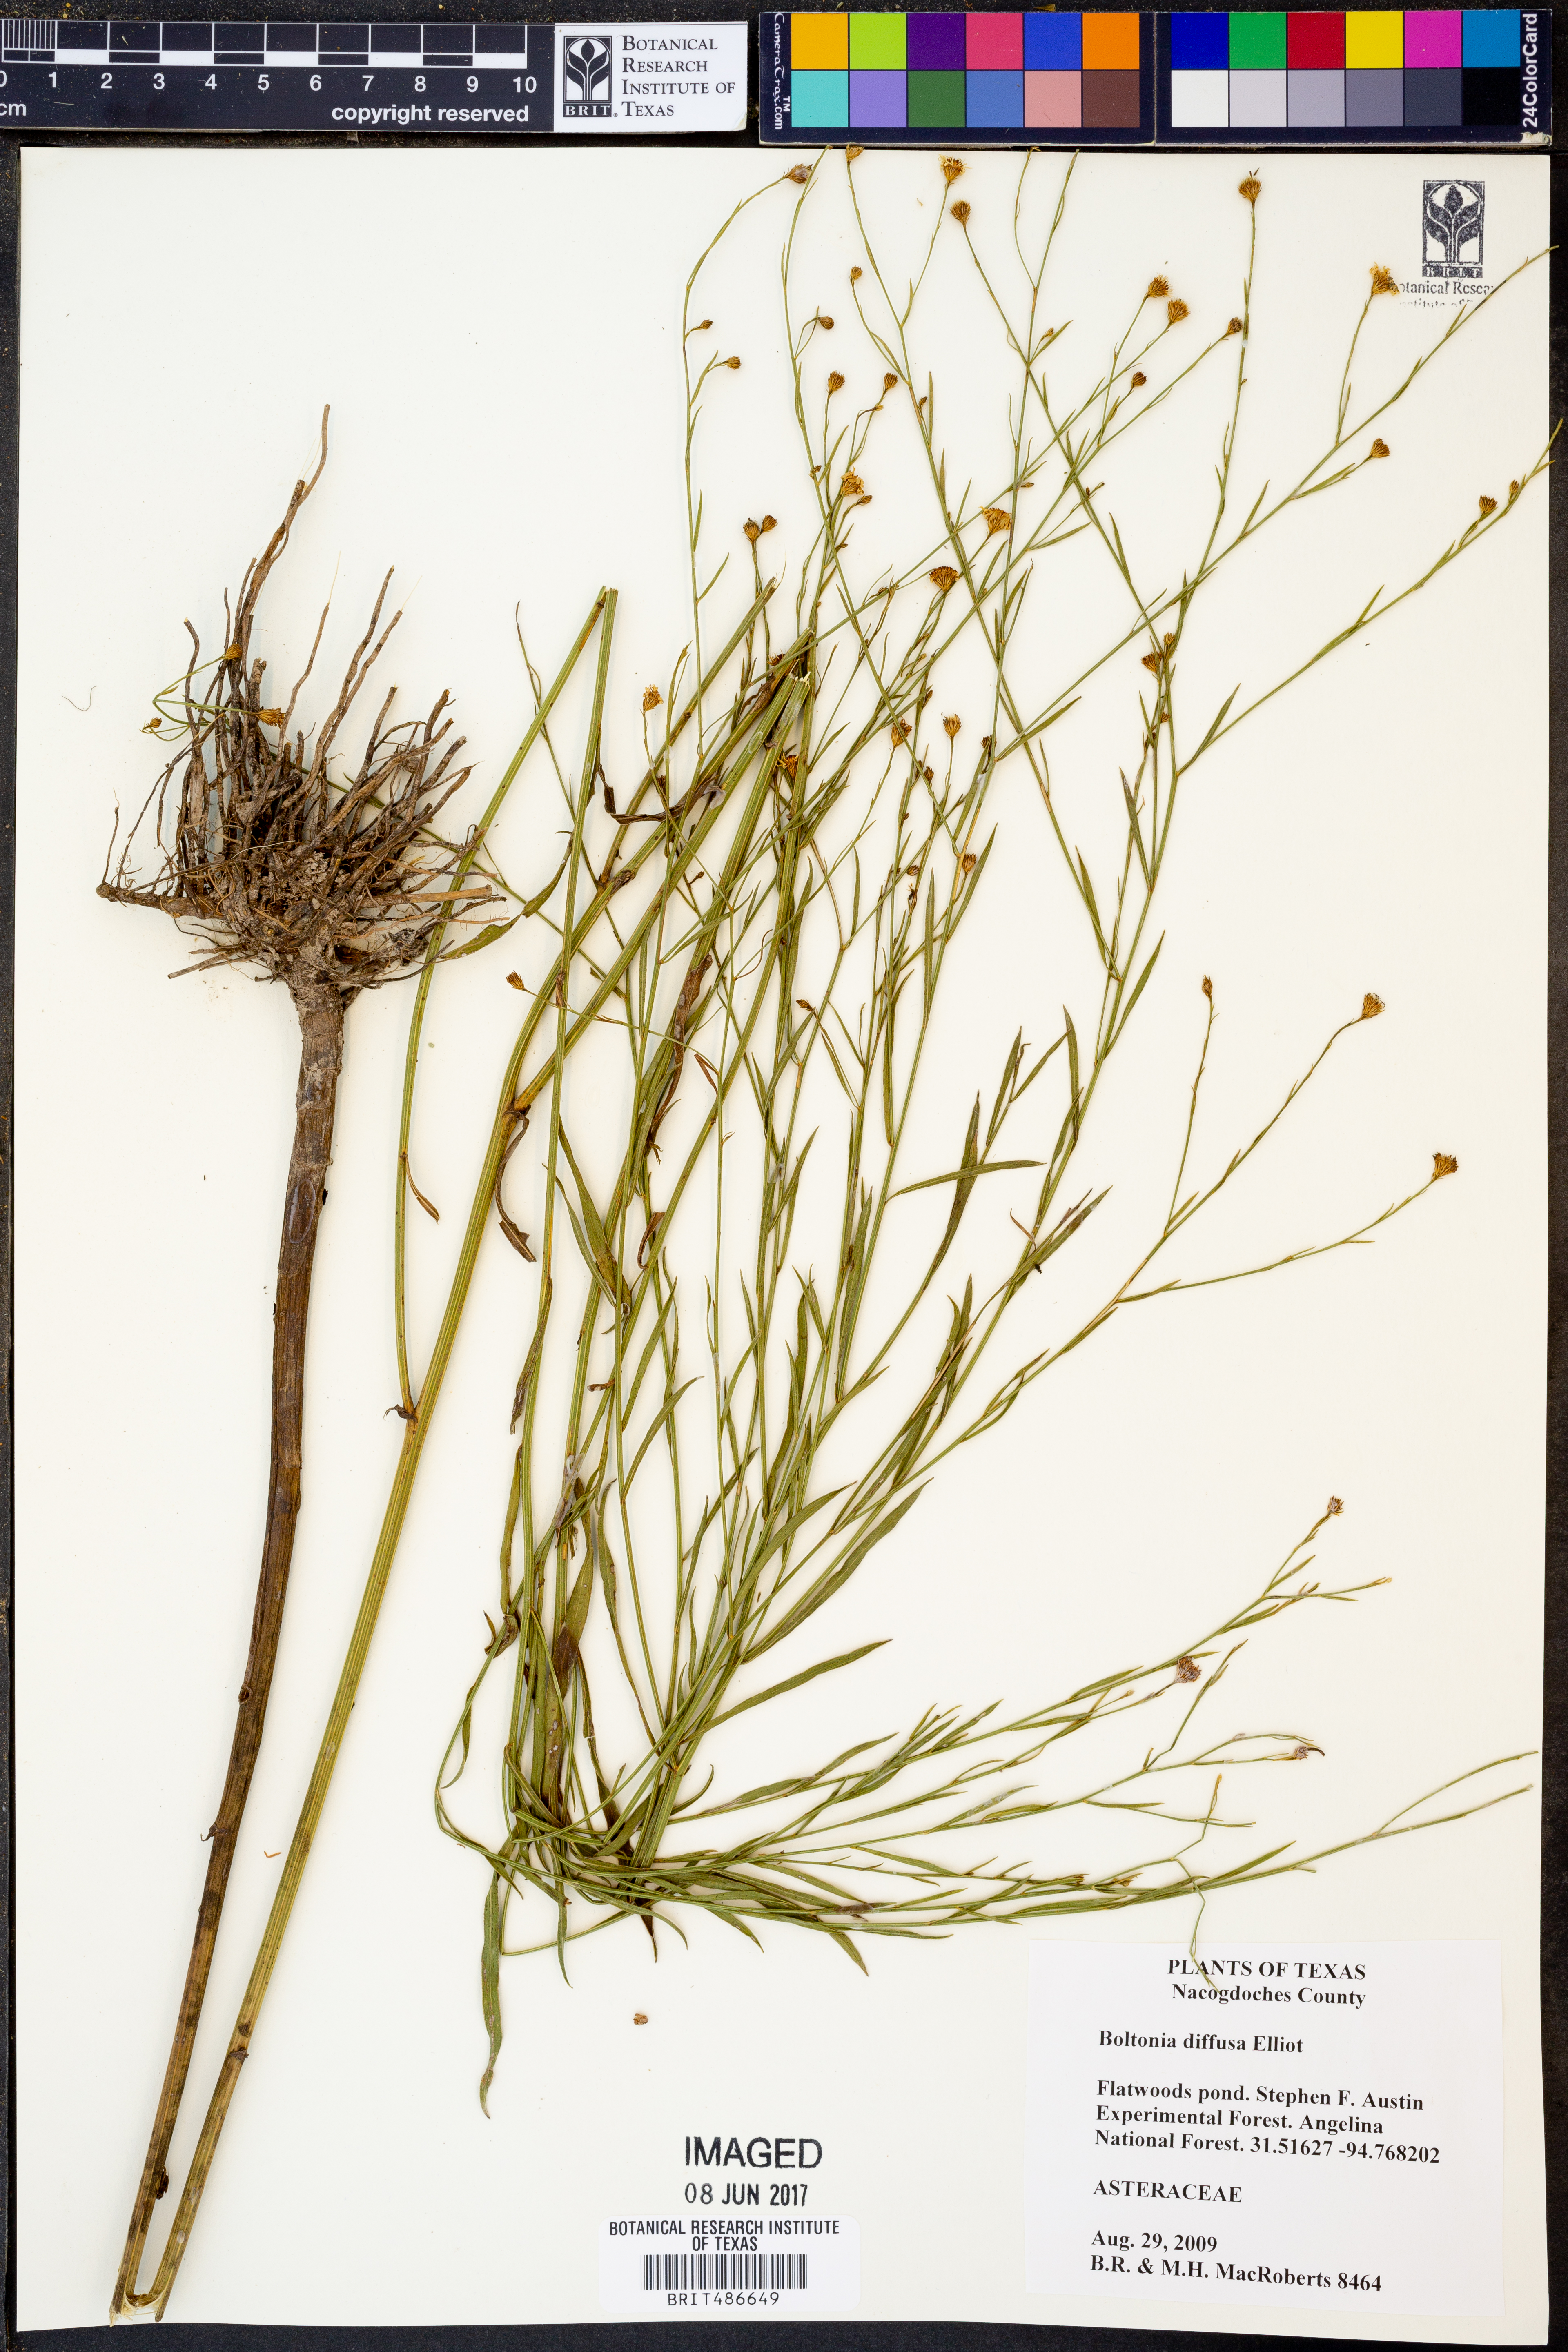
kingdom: Plantae
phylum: Tracheophyta
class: Magnoliopsida
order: Asterales
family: Asteraceae
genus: Boltonia
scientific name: Boltonia diffusa
